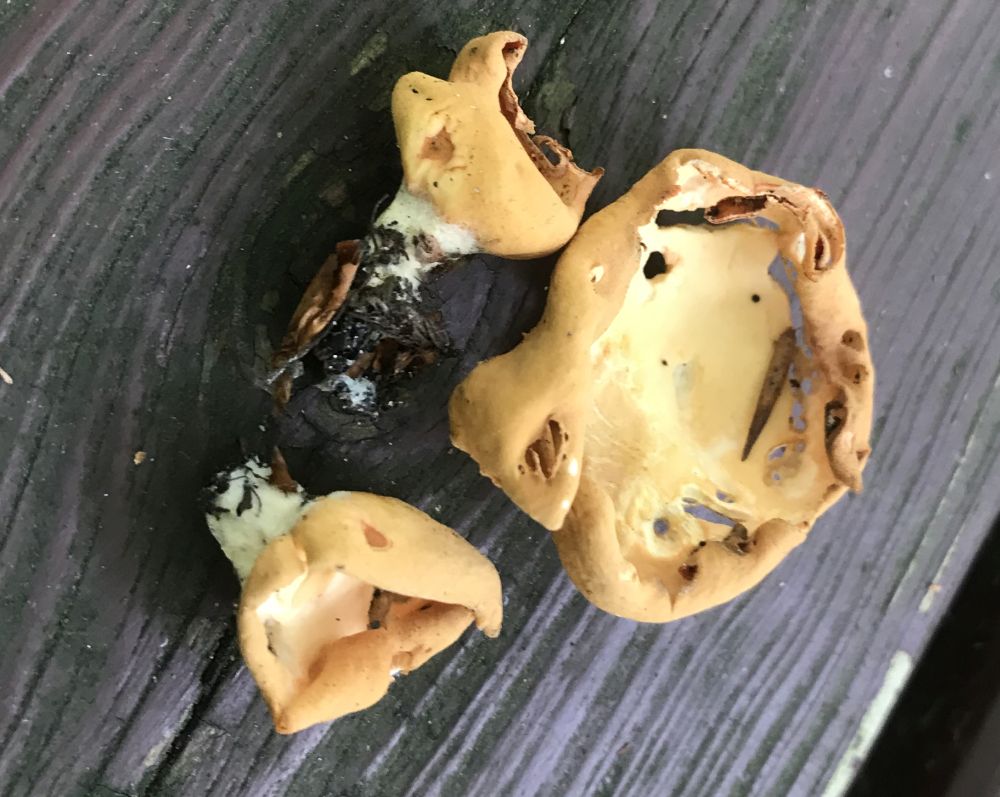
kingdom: Fungi
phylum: Ascomycota
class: Pezizomycetes
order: Pezizales
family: Otideaceae
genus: Otidea
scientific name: Otidea
